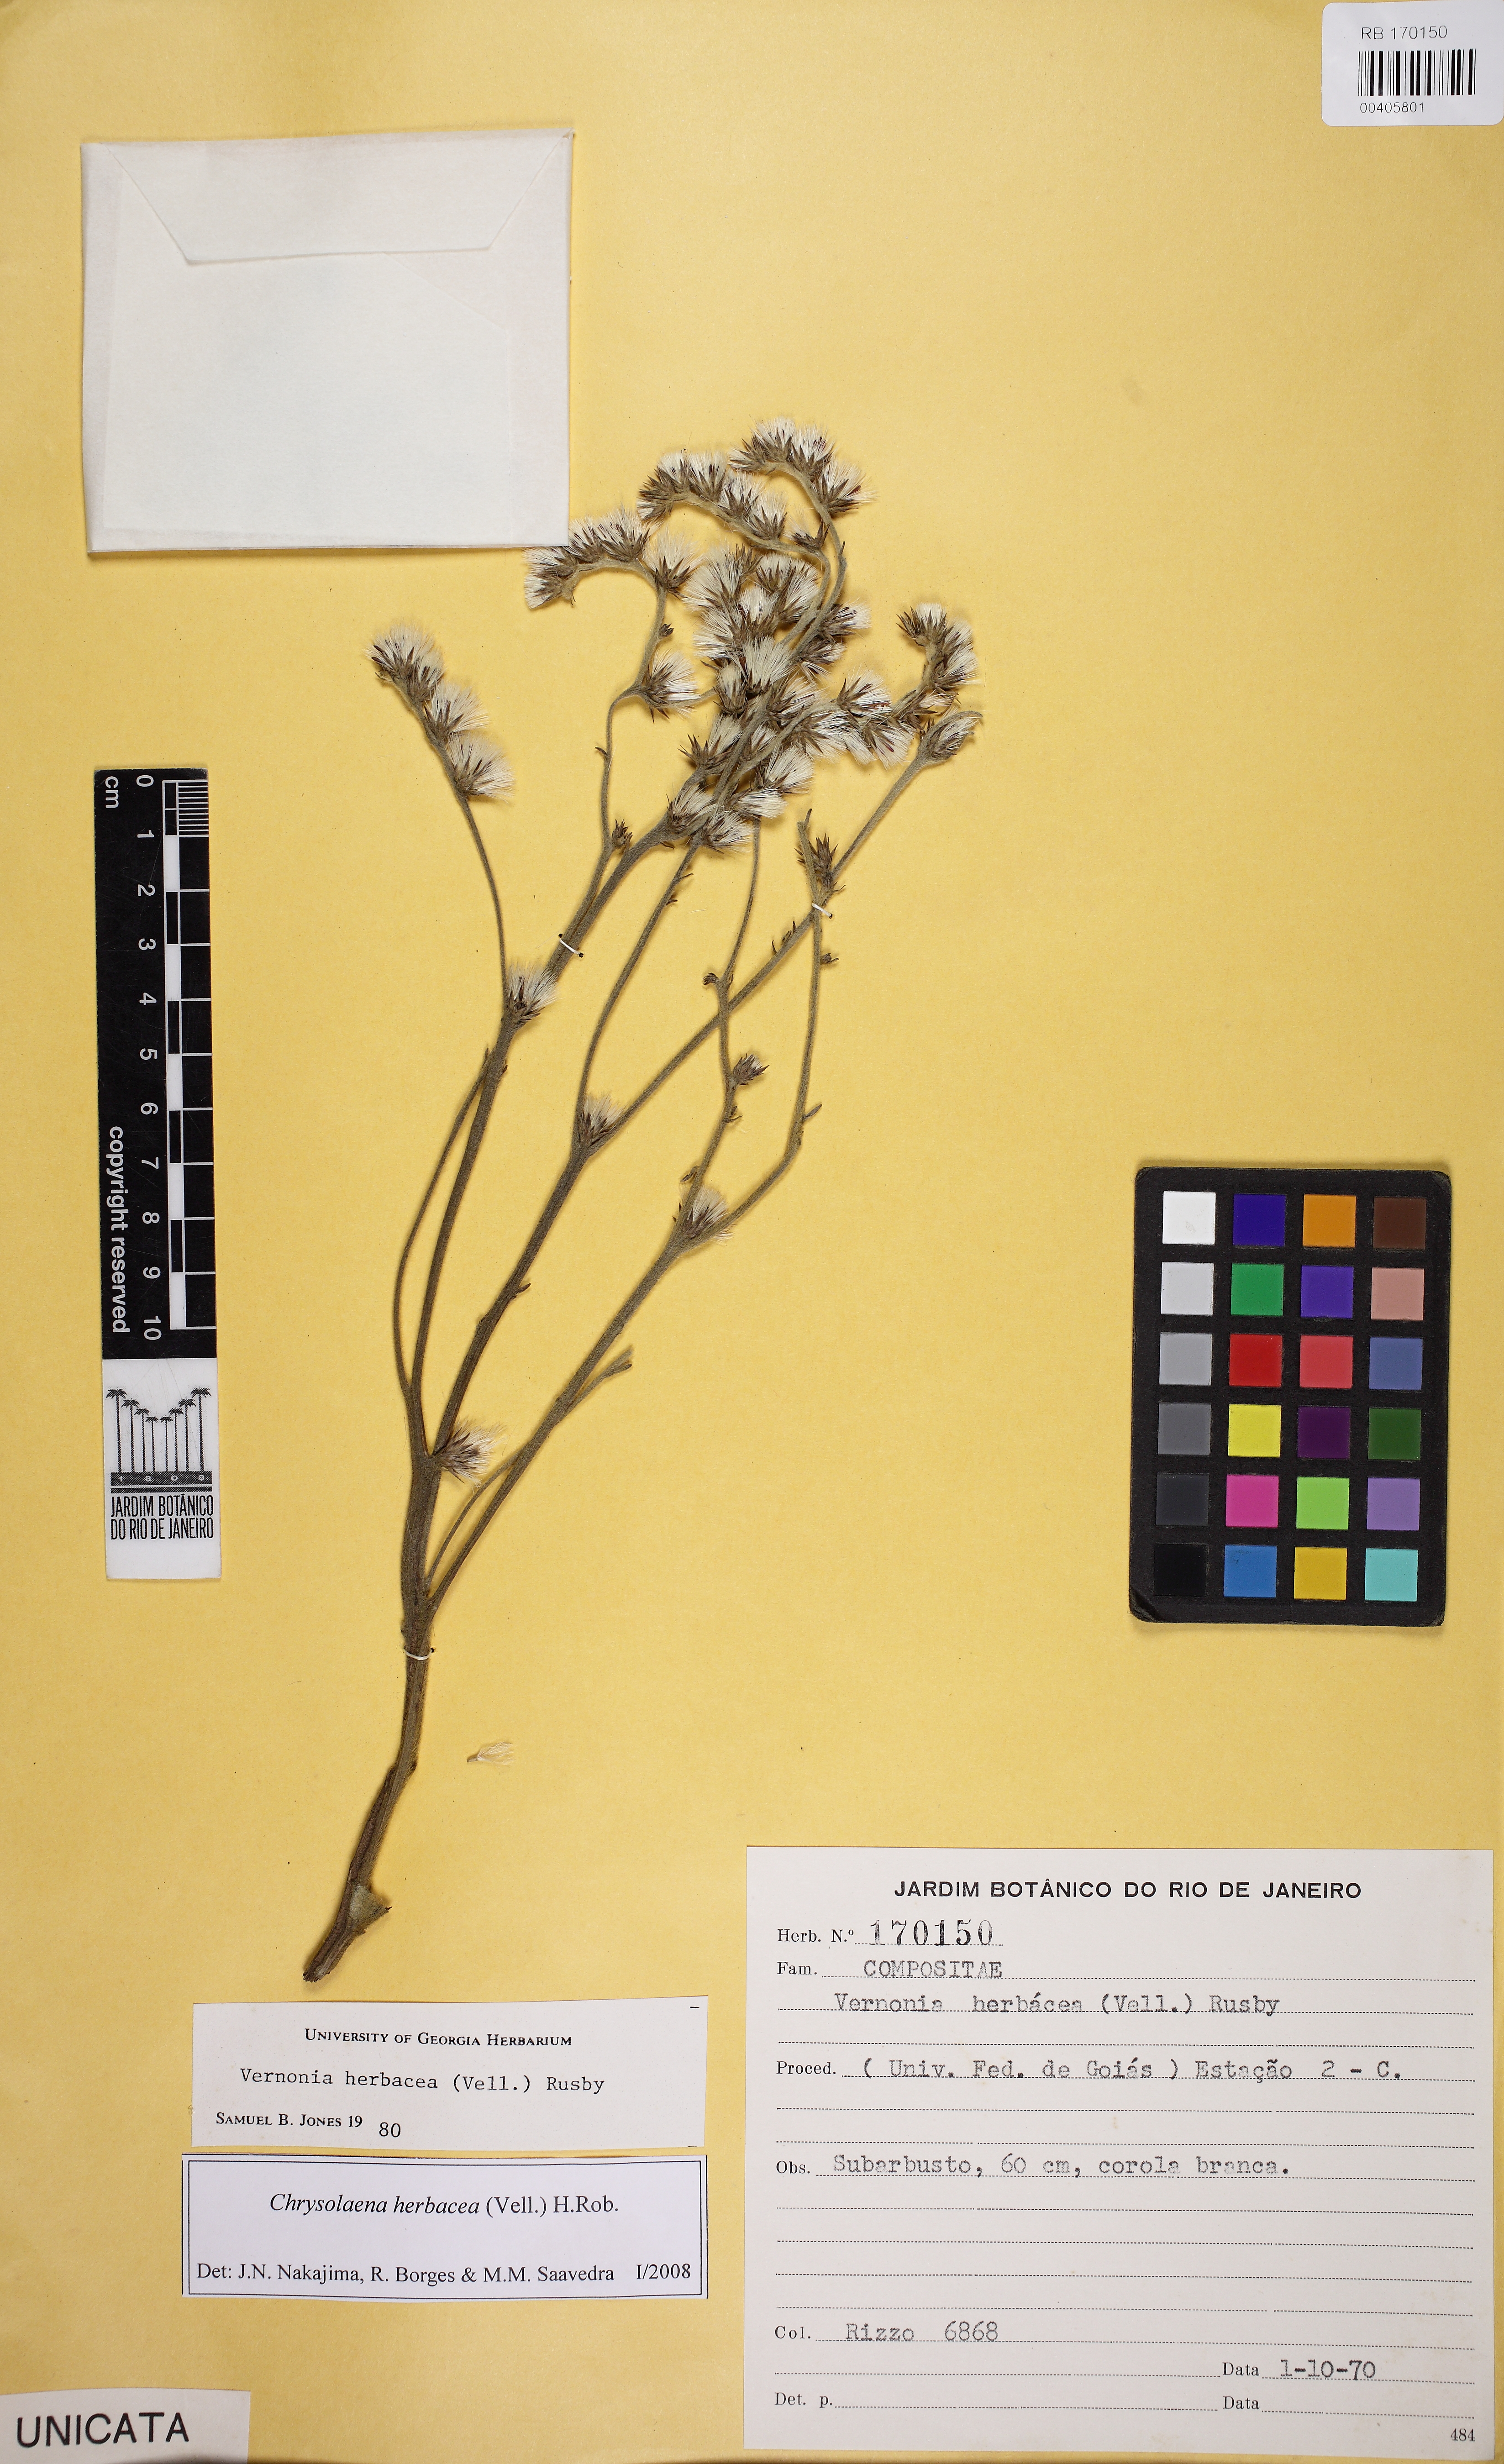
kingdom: Plantae
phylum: Tracheophyta
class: Magnoliopsida
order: Asterales
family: Asteraceae
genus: Lepidaploa
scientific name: Lepidaploa argyropappa
